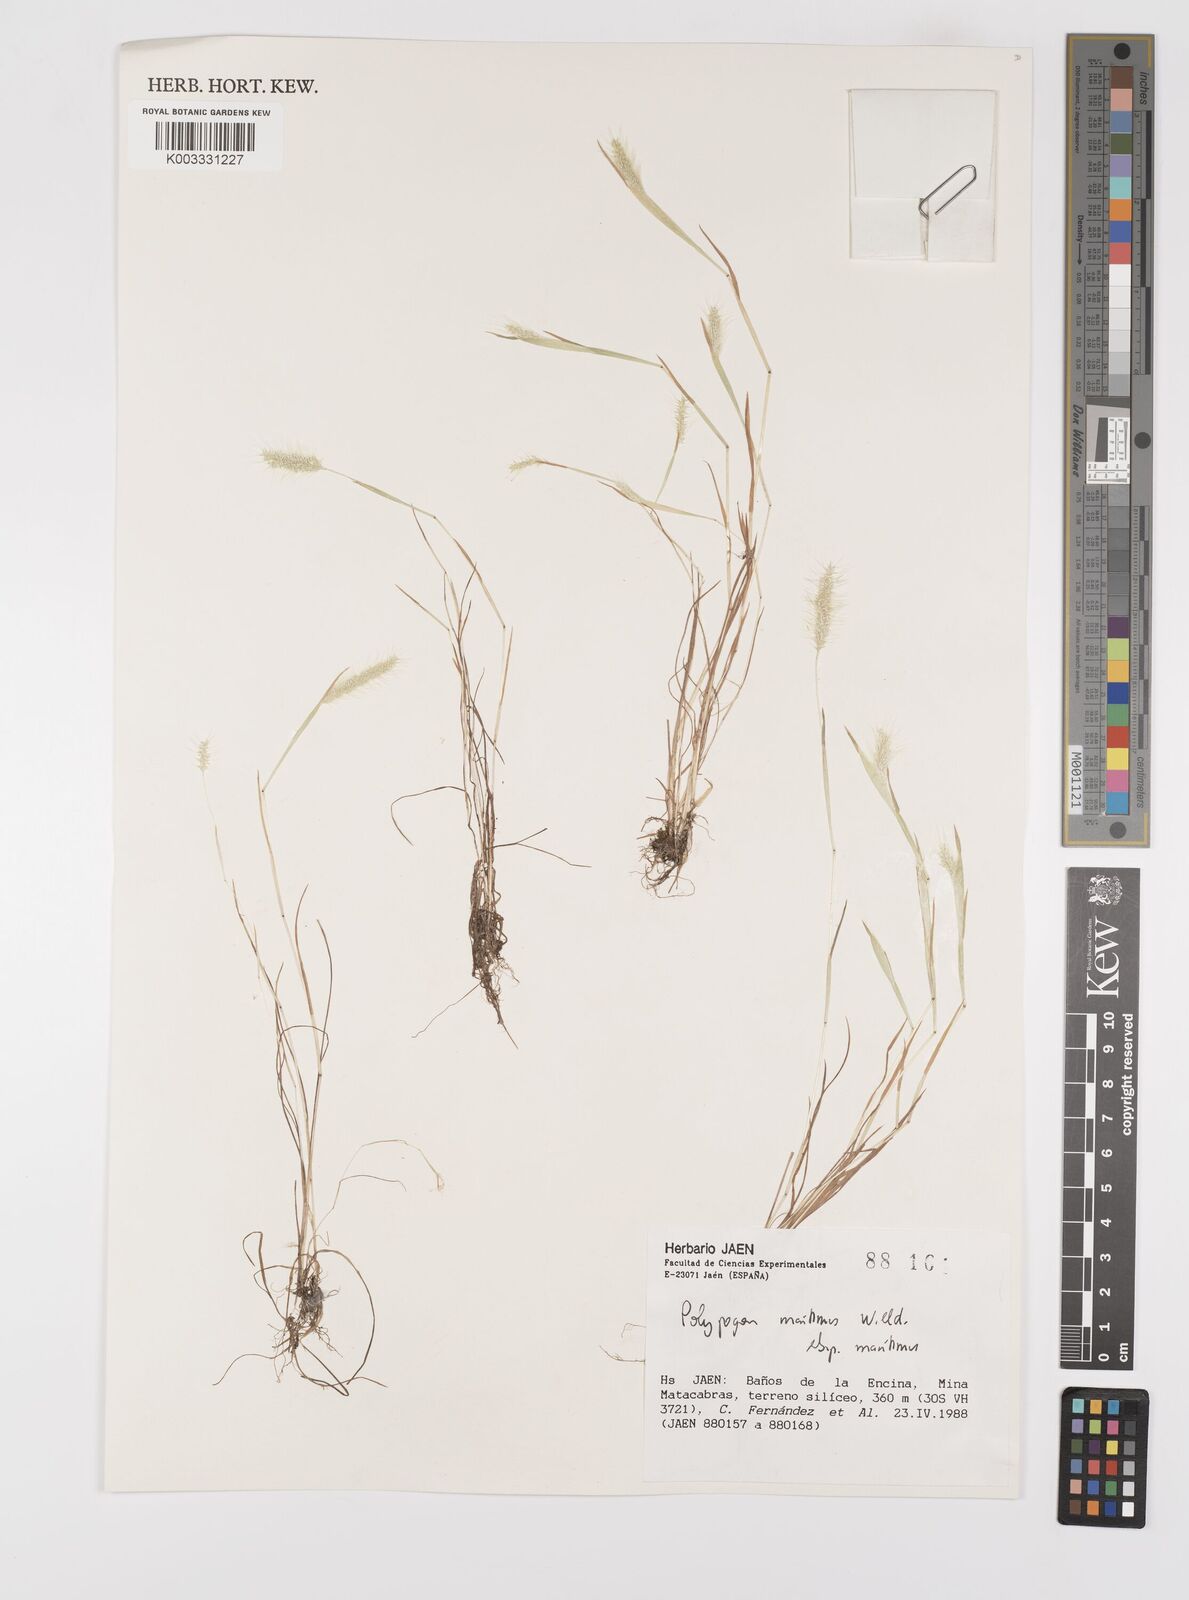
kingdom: Plantae
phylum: Tracheophyta
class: Liliopsida
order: Poales
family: Poaceae
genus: Polypogon
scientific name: Polypogon maritimus
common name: Mediterranean rabbitsfoot grass
